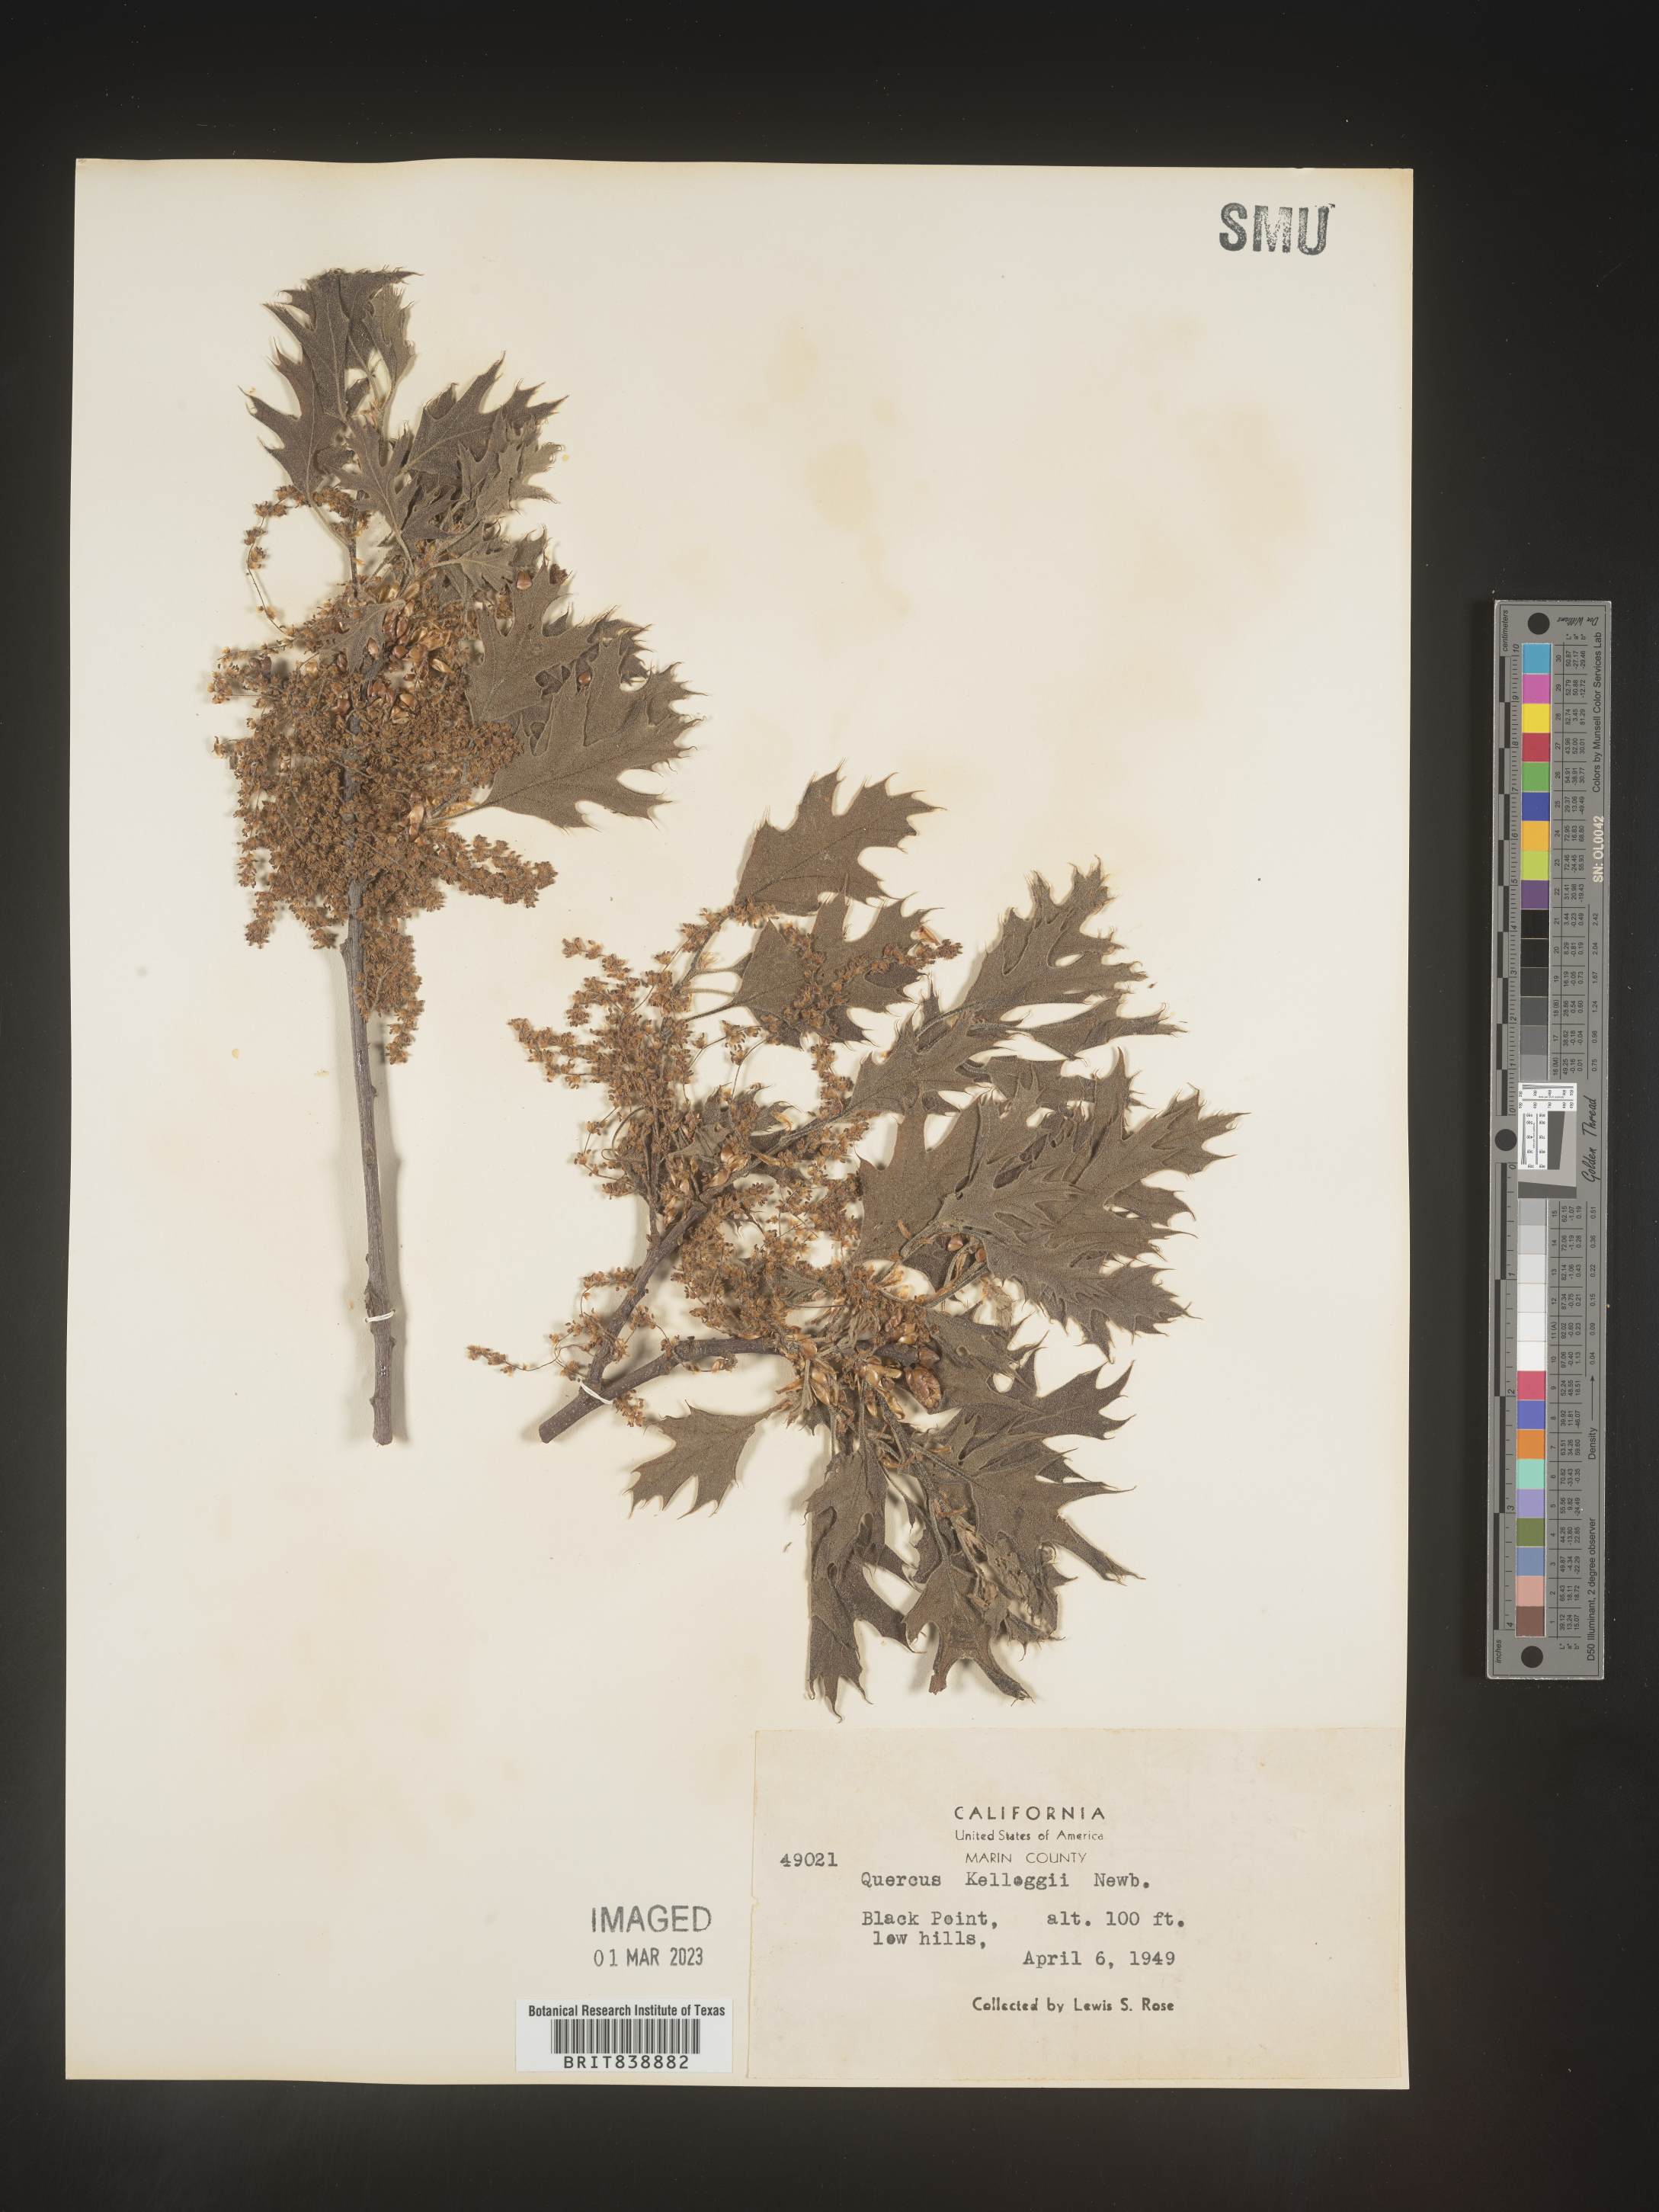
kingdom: Plantae
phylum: Tracheophyta
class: Magnoliopsida
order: Fagales
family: Fagaceae
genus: Quercus
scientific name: Quercus kelloggii
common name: California black oak
